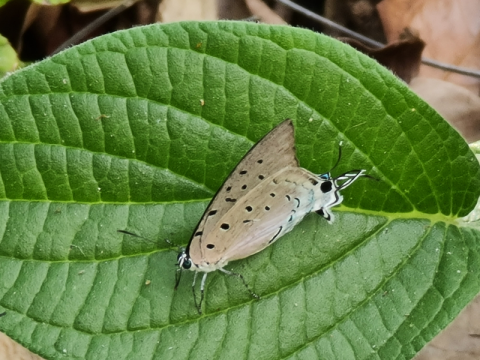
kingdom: Animalia
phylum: Arthropoda
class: Insecta
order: Lepidoptera
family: Lycaenidae
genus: Pseudolycaena
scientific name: Pseudolycaena damo
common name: Sky-blue Hairstreak
